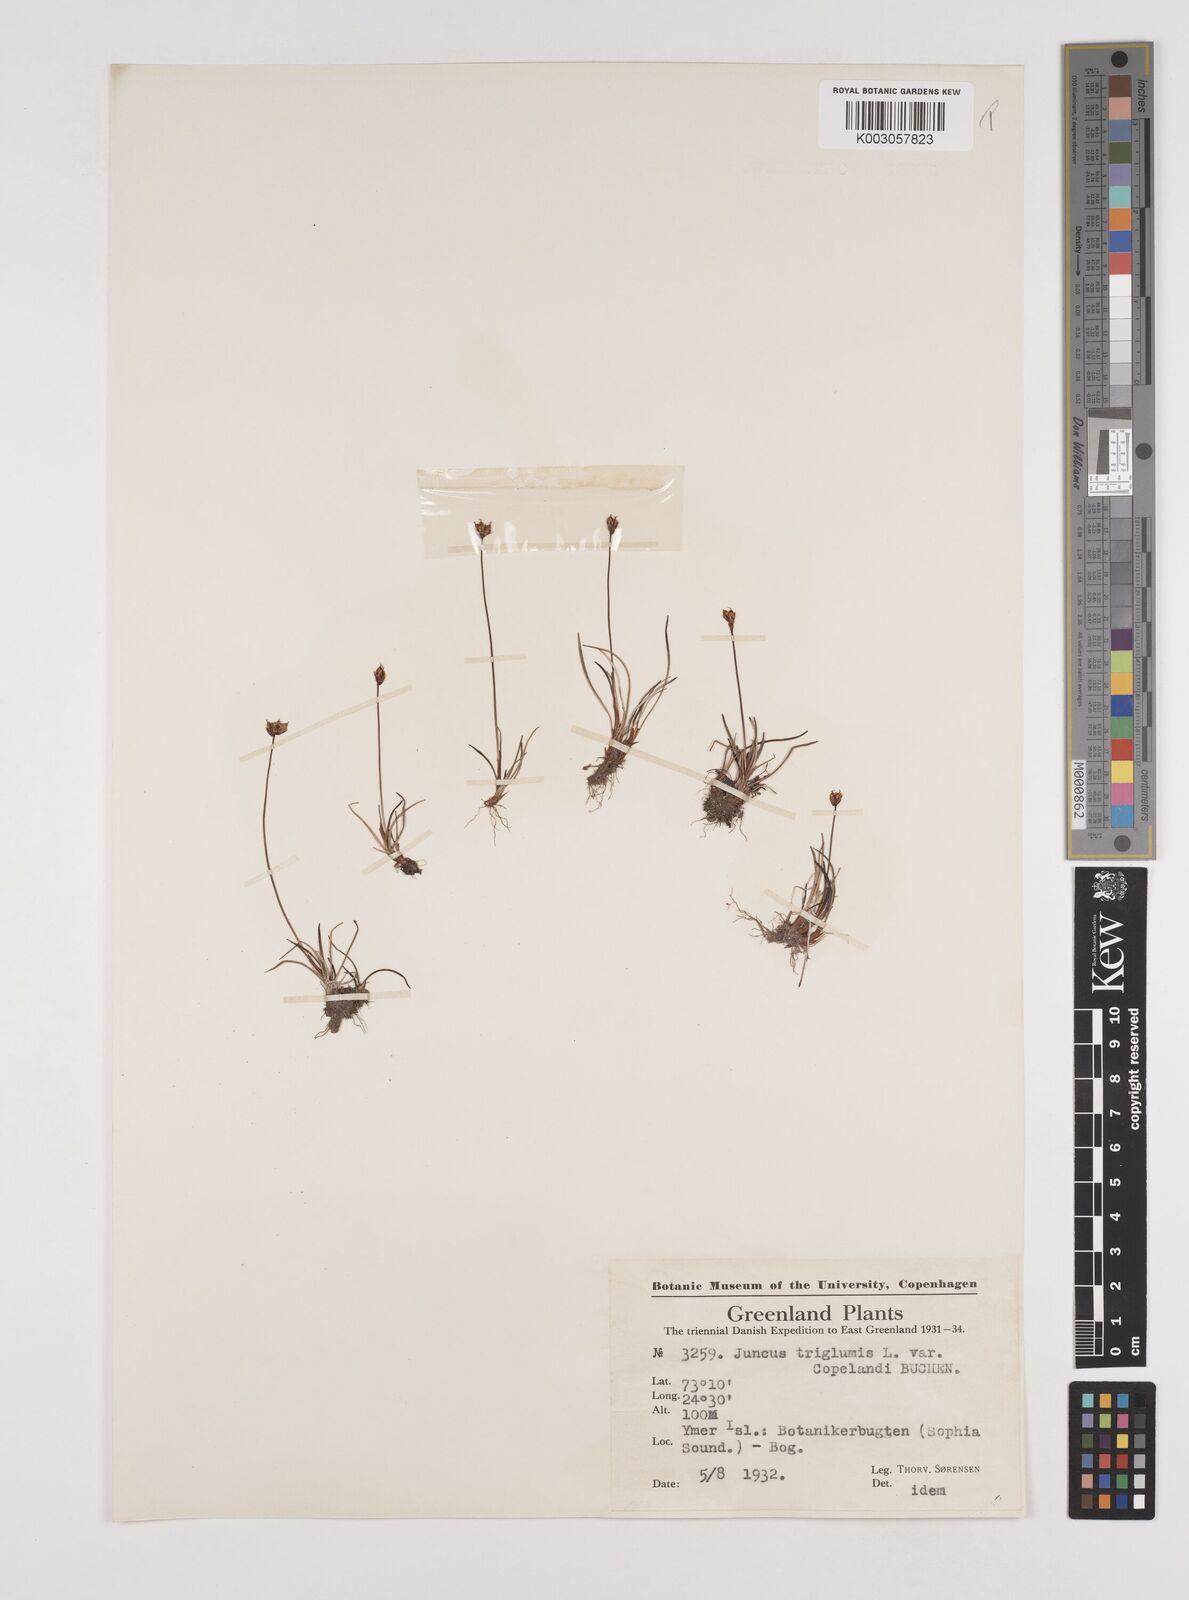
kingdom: Plantae
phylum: Tracheophyta
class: Liliopsida
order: Poales
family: Juncaceae
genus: Juncus
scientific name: Juncus triglumis
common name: Three-flowered rush
